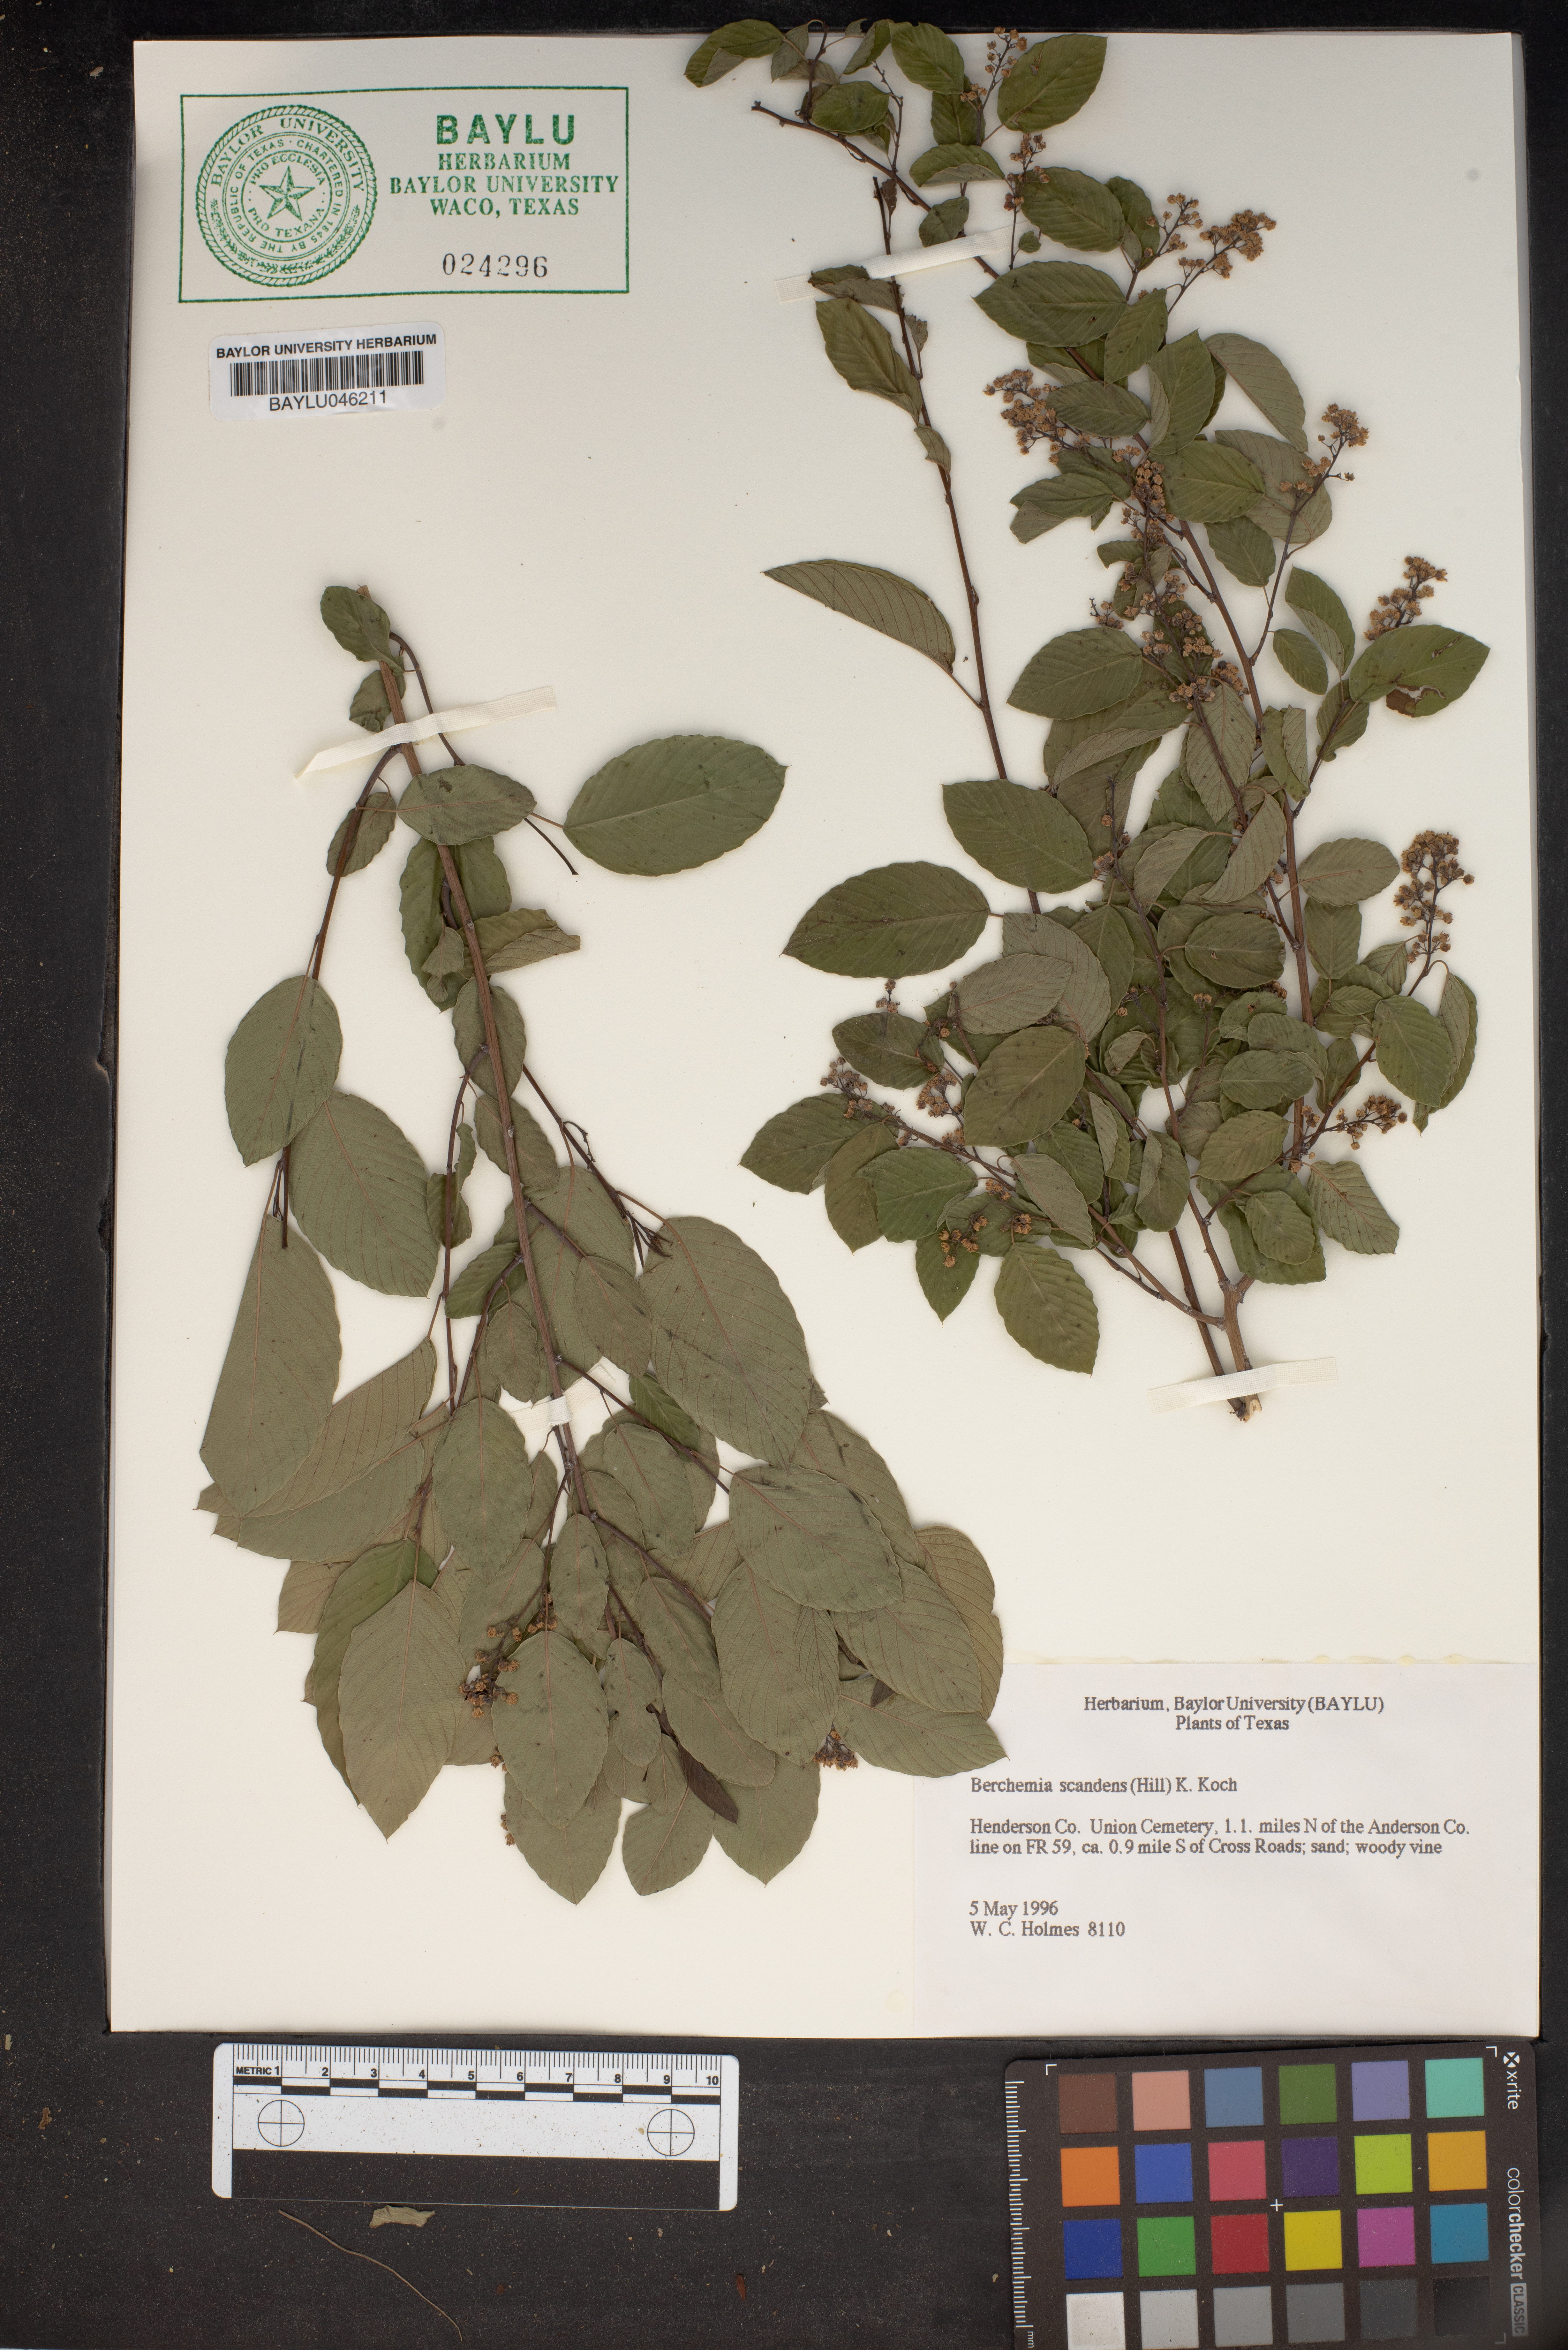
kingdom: Plantae
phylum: Tracheophyta
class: Magnoliopsida
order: Rosales
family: Rhamnaceae
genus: Berchemia
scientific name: Berchemia scandens
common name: Supplejack
